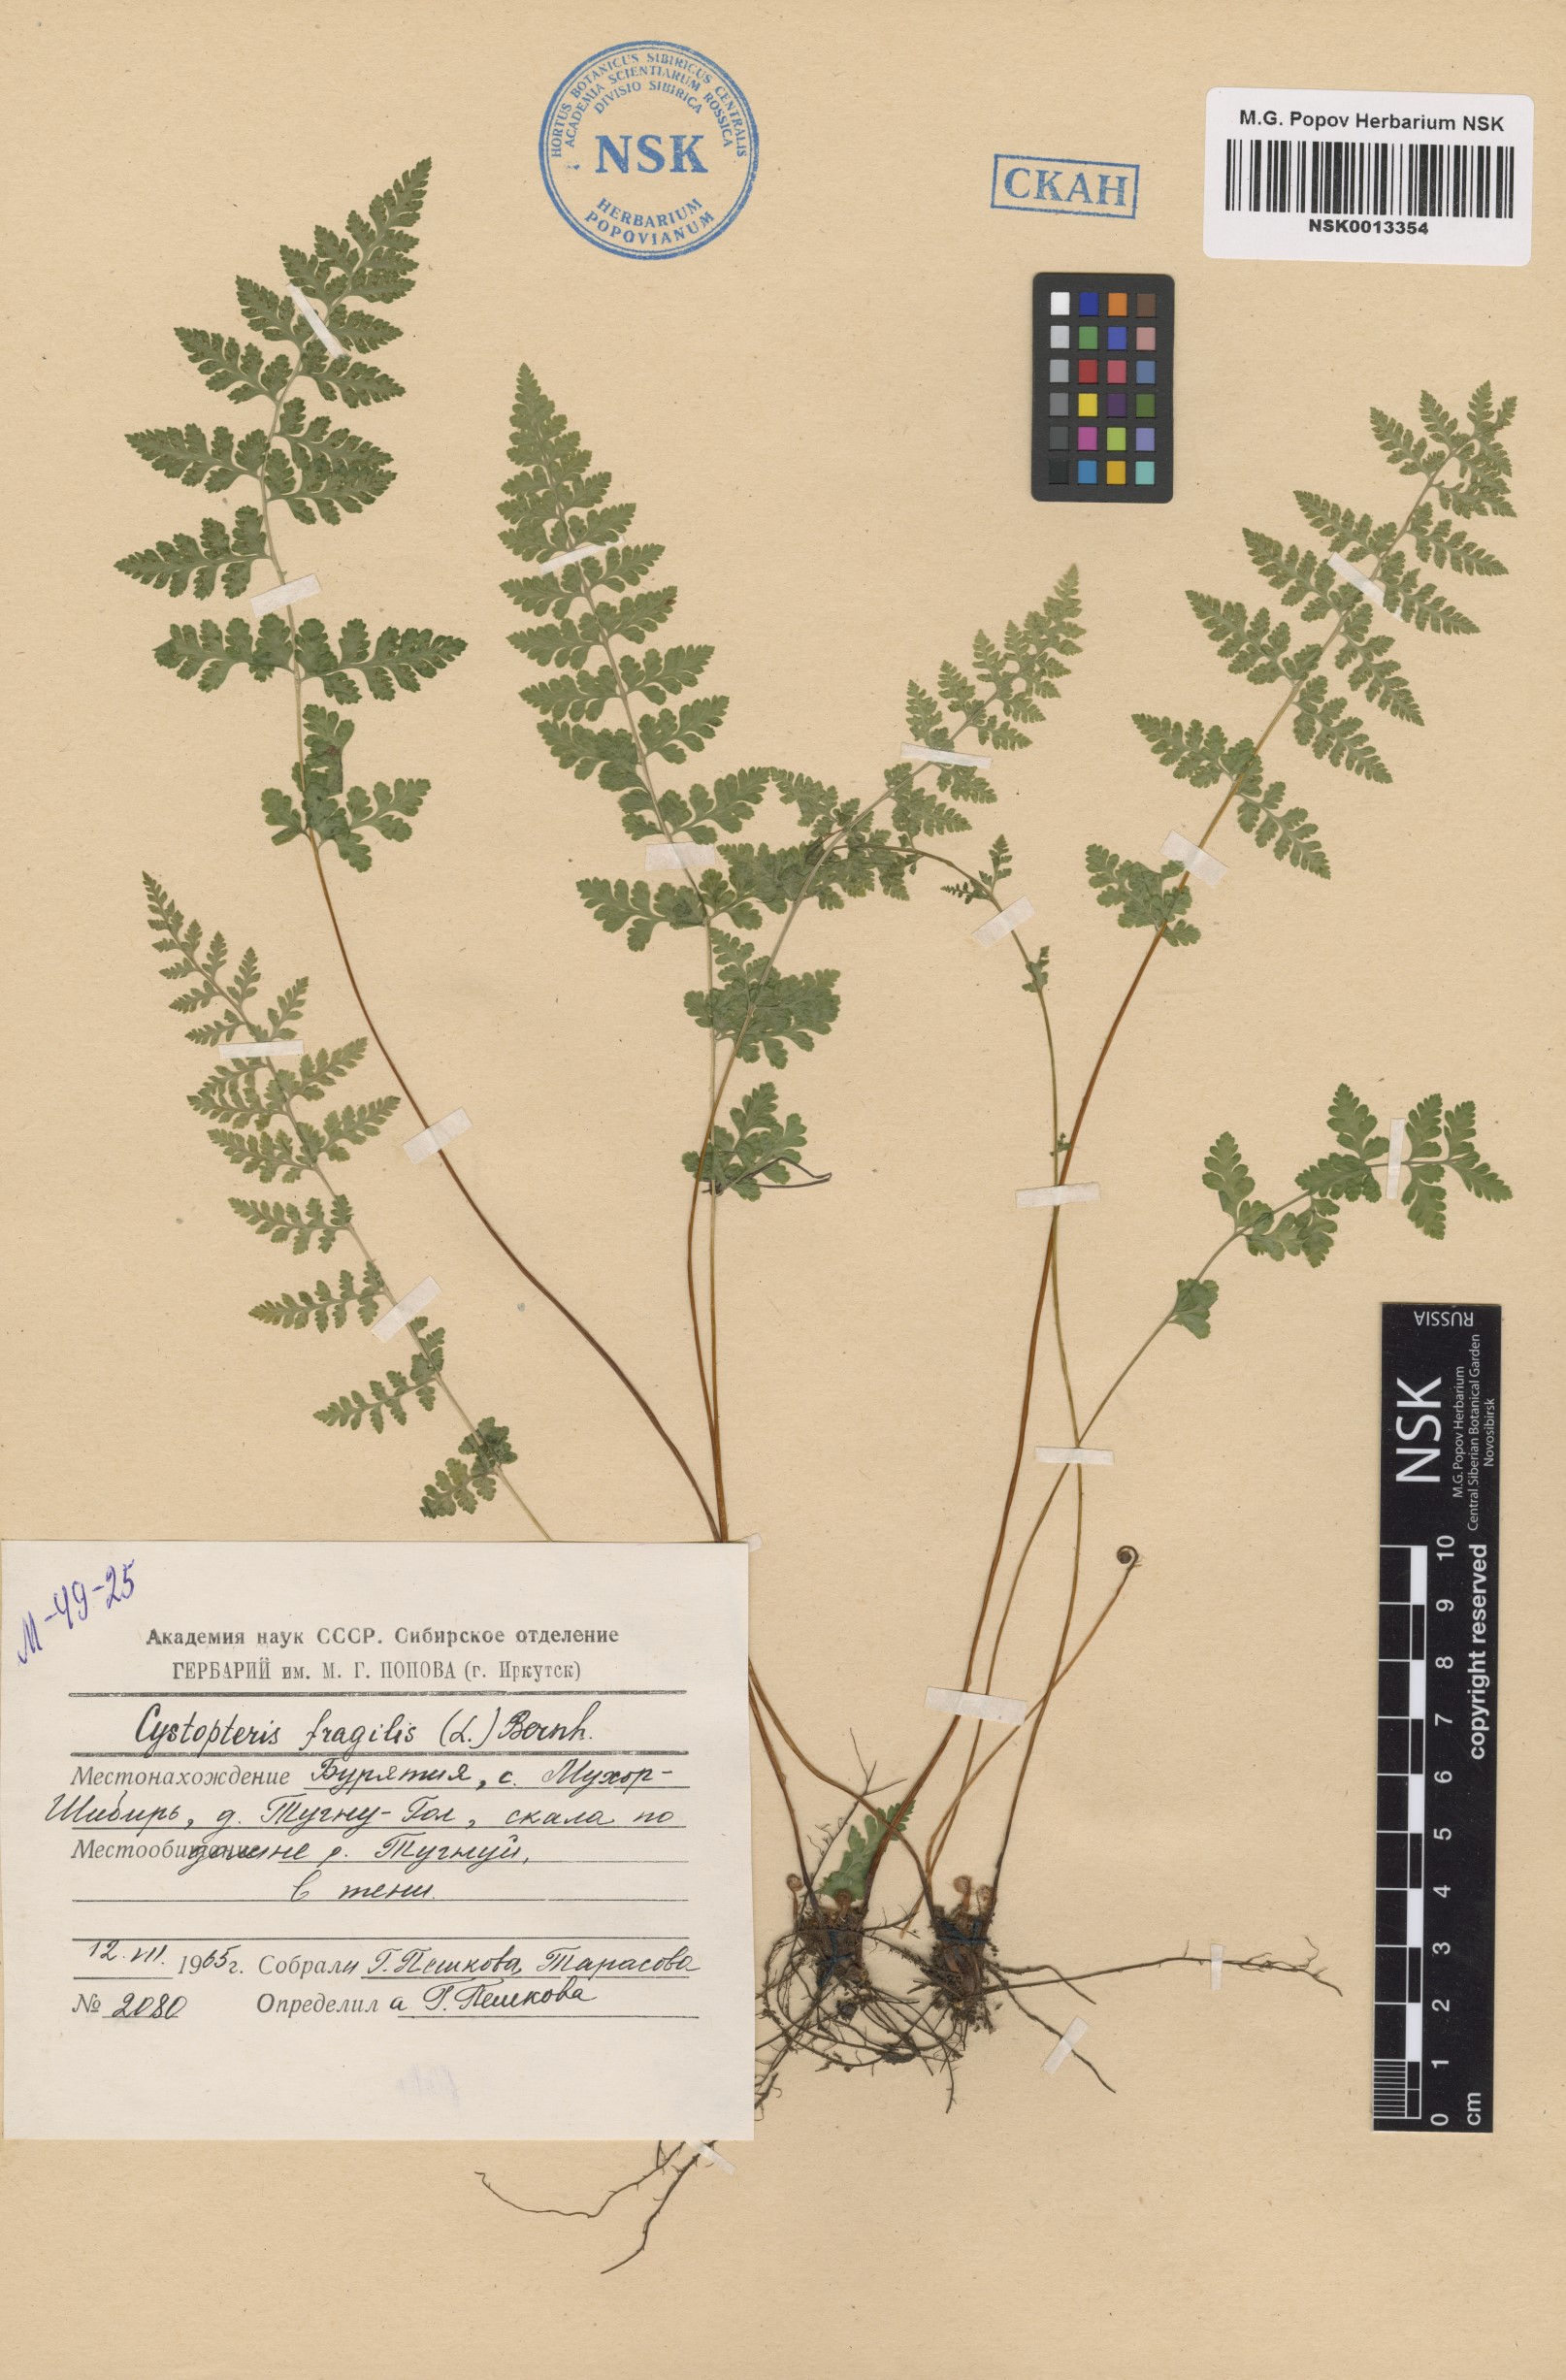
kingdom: Plantae
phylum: Tracheophyta
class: Polypodiopsida
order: Polypodiales
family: Cystopteridaceae
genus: Cystopteris
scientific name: Cystopteris fragilis
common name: Brittle bladder fern
